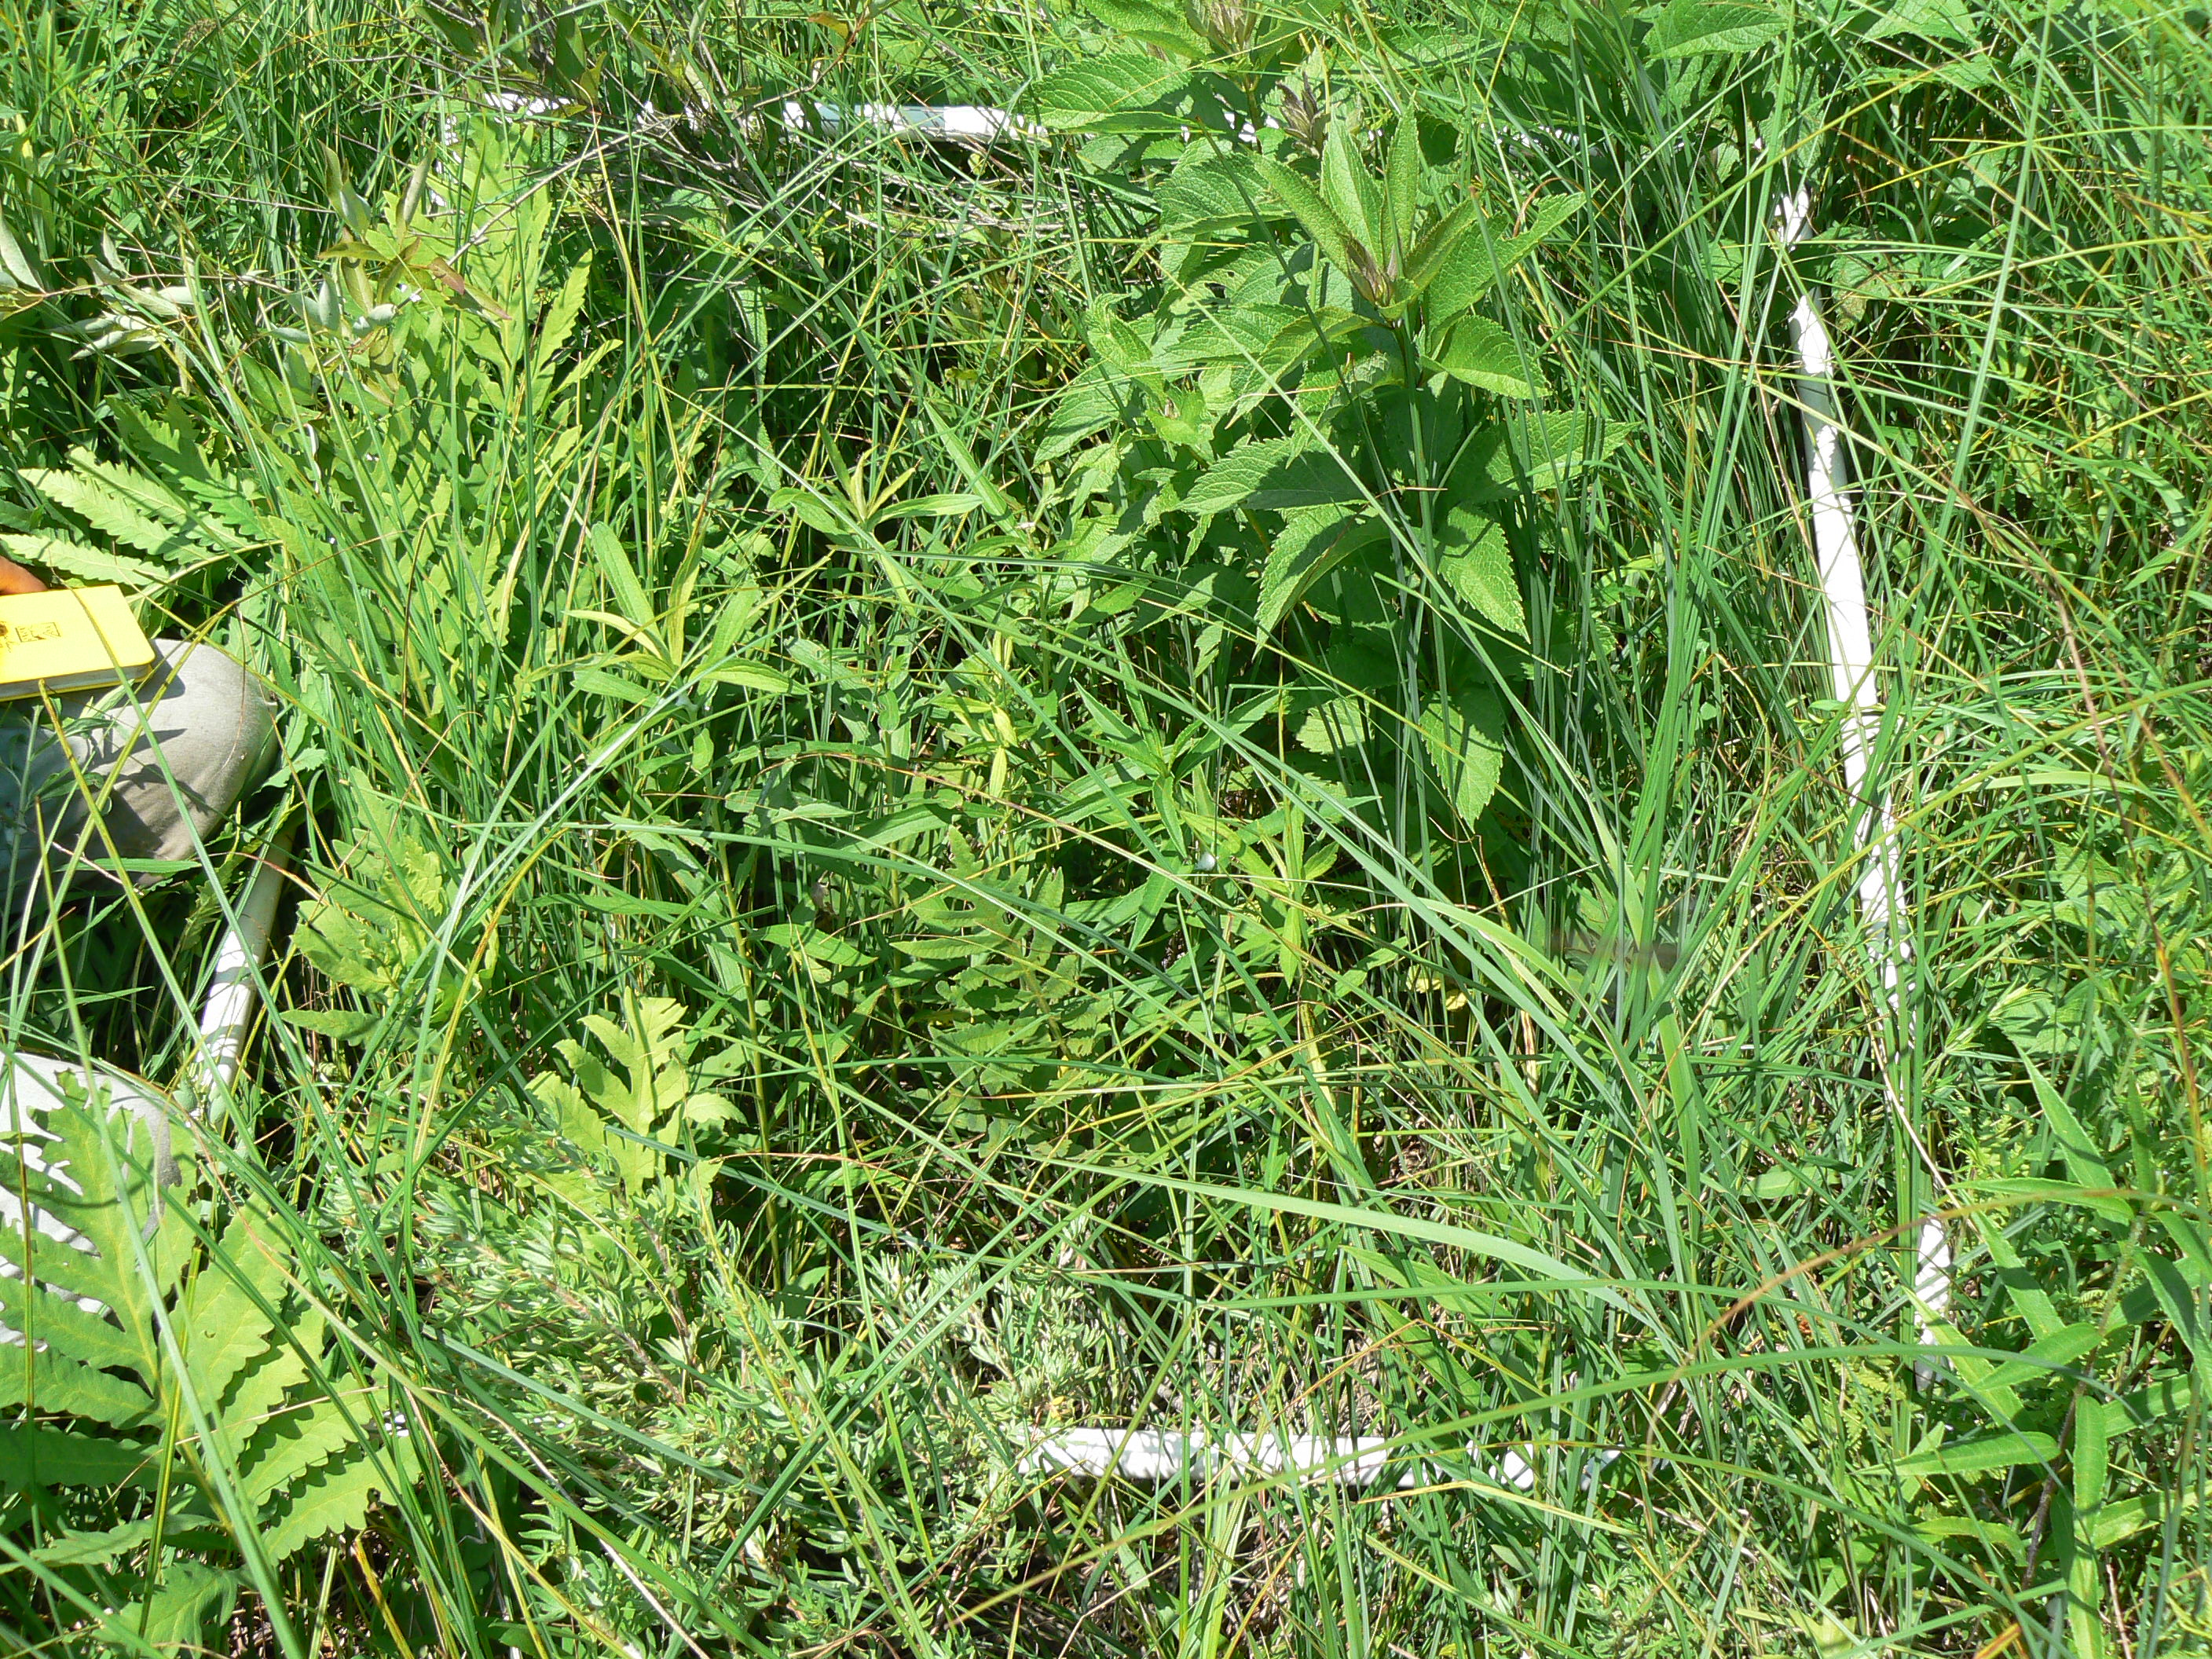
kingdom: Plantae
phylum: Tracheophyta
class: Liliopsida
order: Poales
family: Cyperaceae
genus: Carex
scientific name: Carex stricta
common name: Hummock sedge
